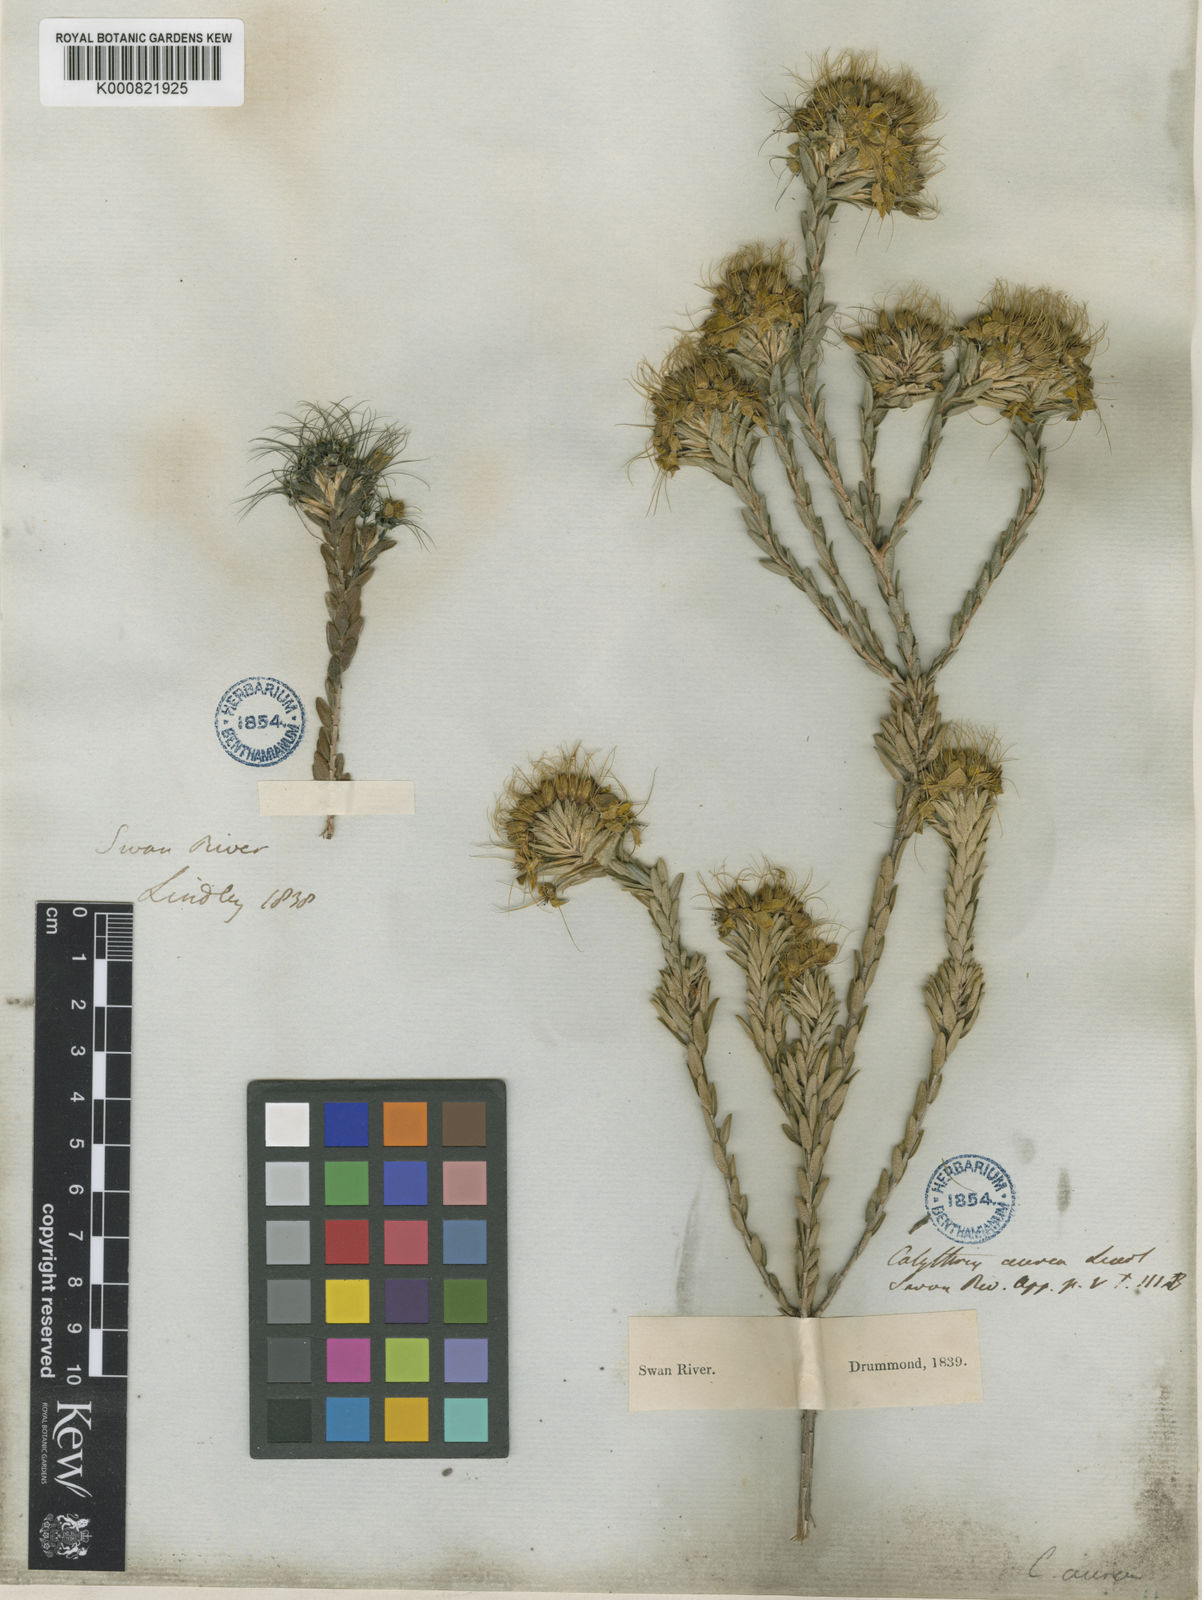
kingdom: Plantae
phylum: Tracheophyta
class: Magnoliopsida
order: Myrtales
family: Myrtaceae
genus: Calytrix
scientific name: Calytrix aurea
